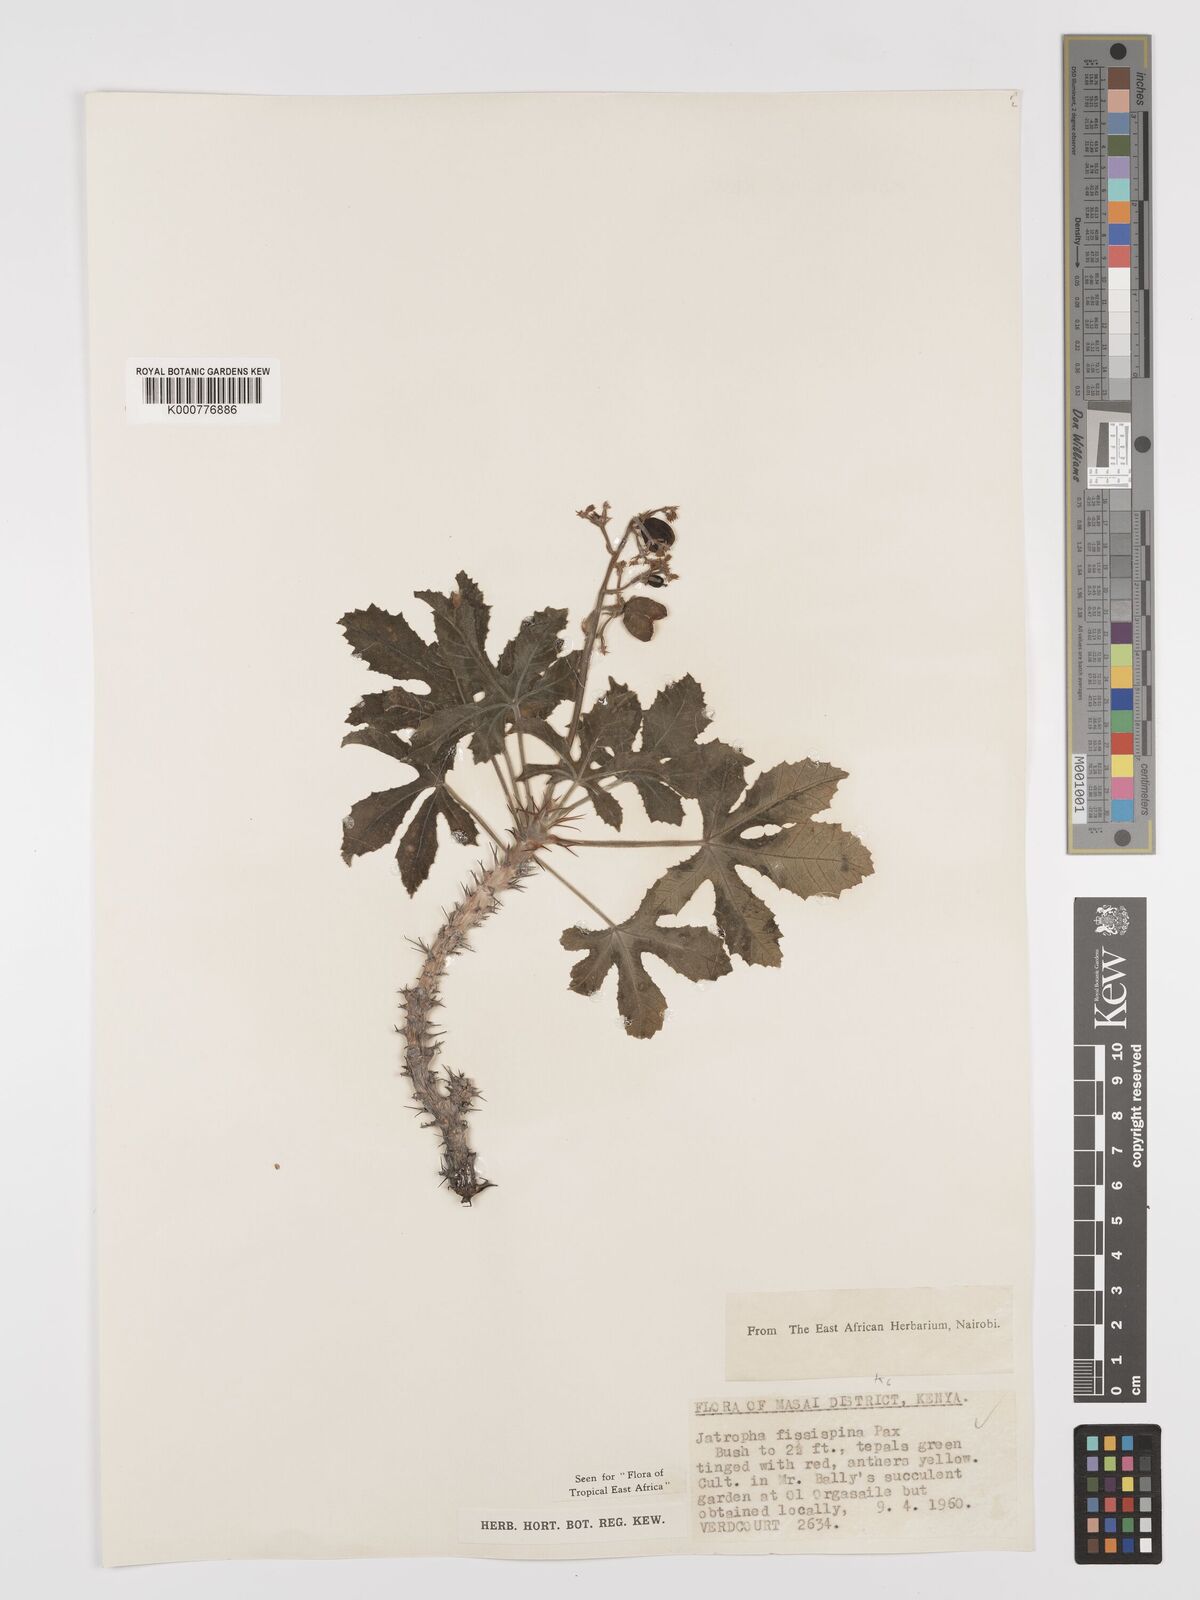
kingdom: Plantae
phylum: Tracheophyta
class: Magnoliopsida
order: Malpighiales
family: Euphorbiaceae
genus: Jatropha
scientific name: Jatropha ellenbeckii
